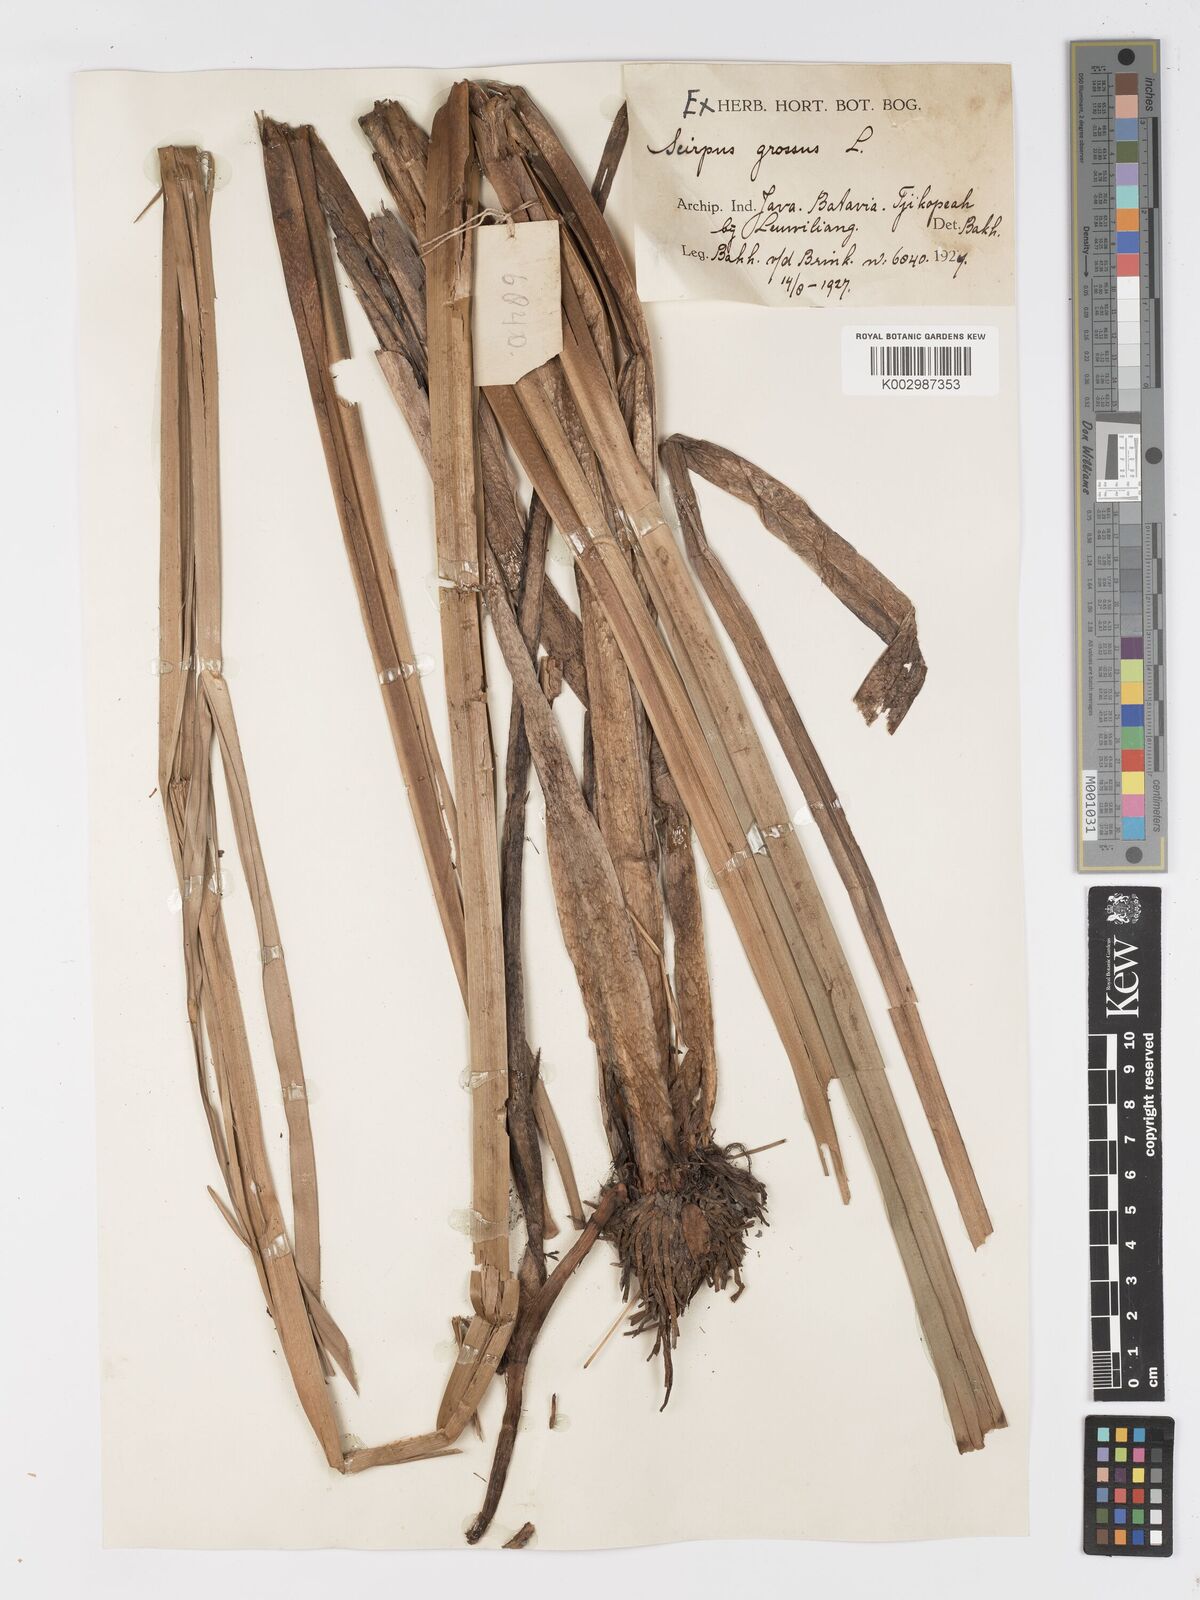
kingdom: Plantae
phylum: Tracheophyta
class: Liliopsida
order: Poales
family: Cyperaceae
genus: Actinoscirpus
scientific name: Actinoscirpus grossus
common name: Giant bur rush
